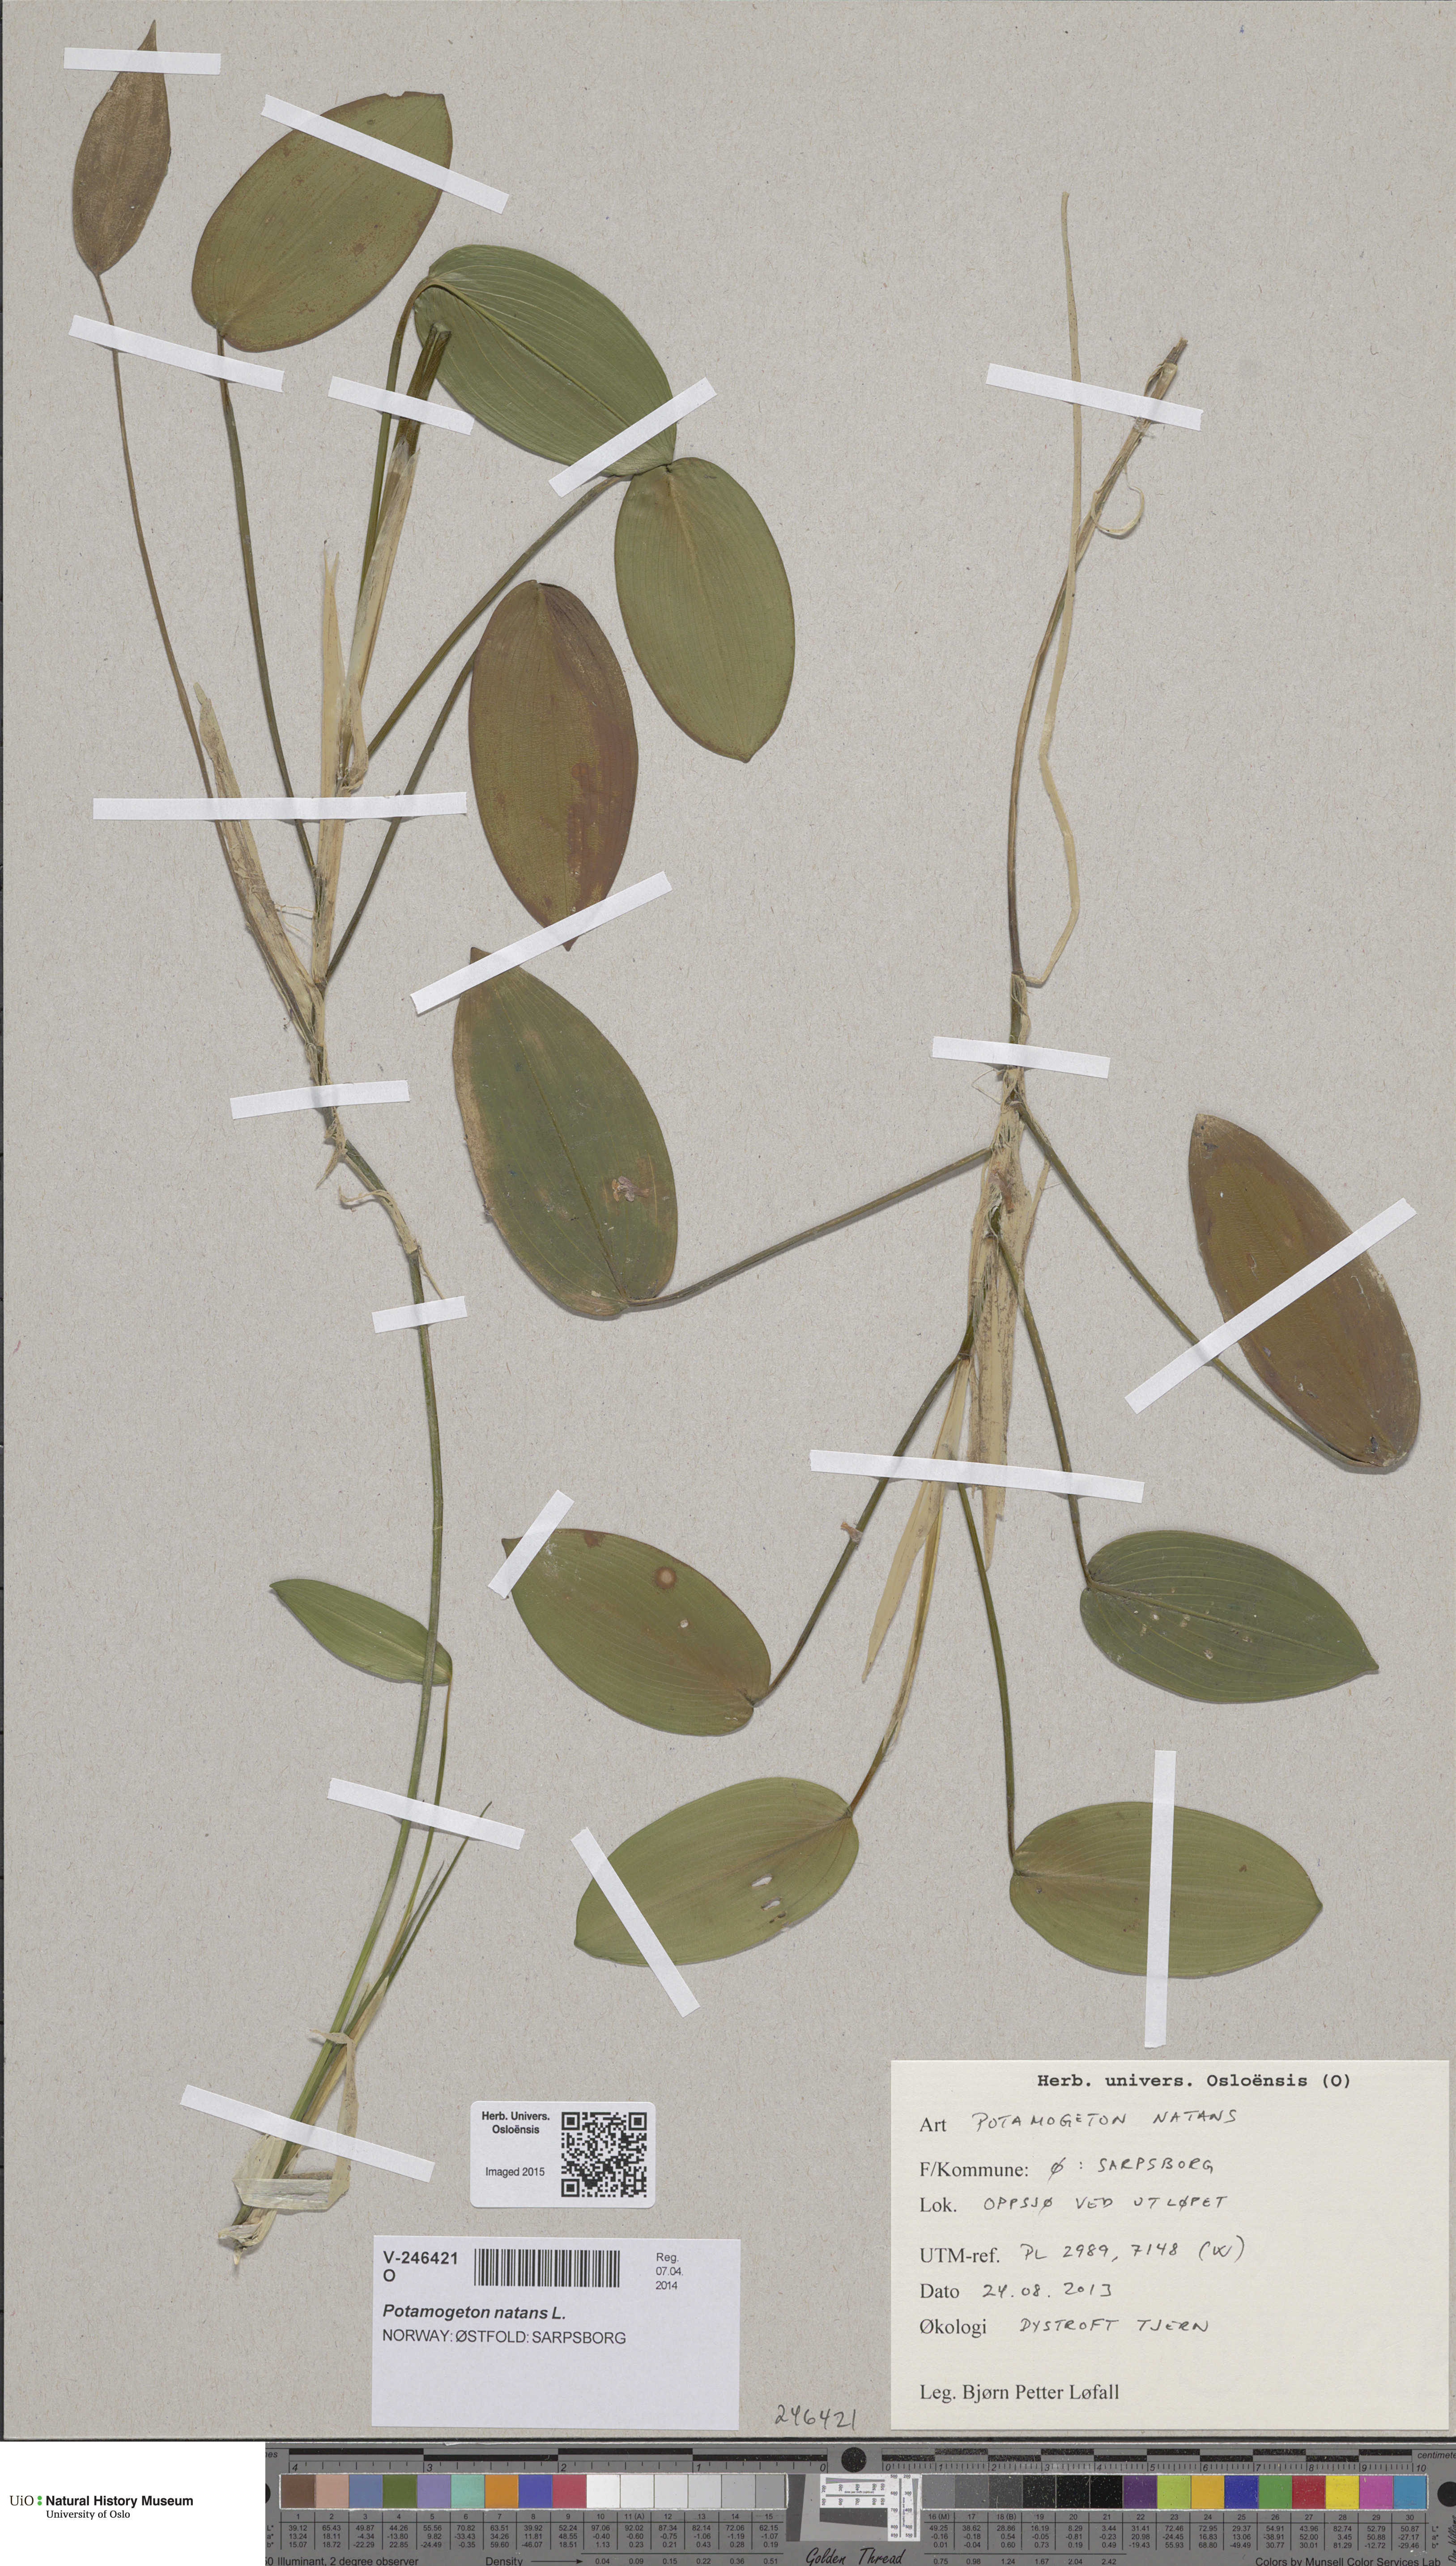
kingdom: Plantae
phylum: Tracheophyta
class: Liliopsida
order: Alismatales
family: Potamogetonaceae
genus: Potamogeton
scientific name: Potamogeton natans
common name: Broad-leaved pondweed
